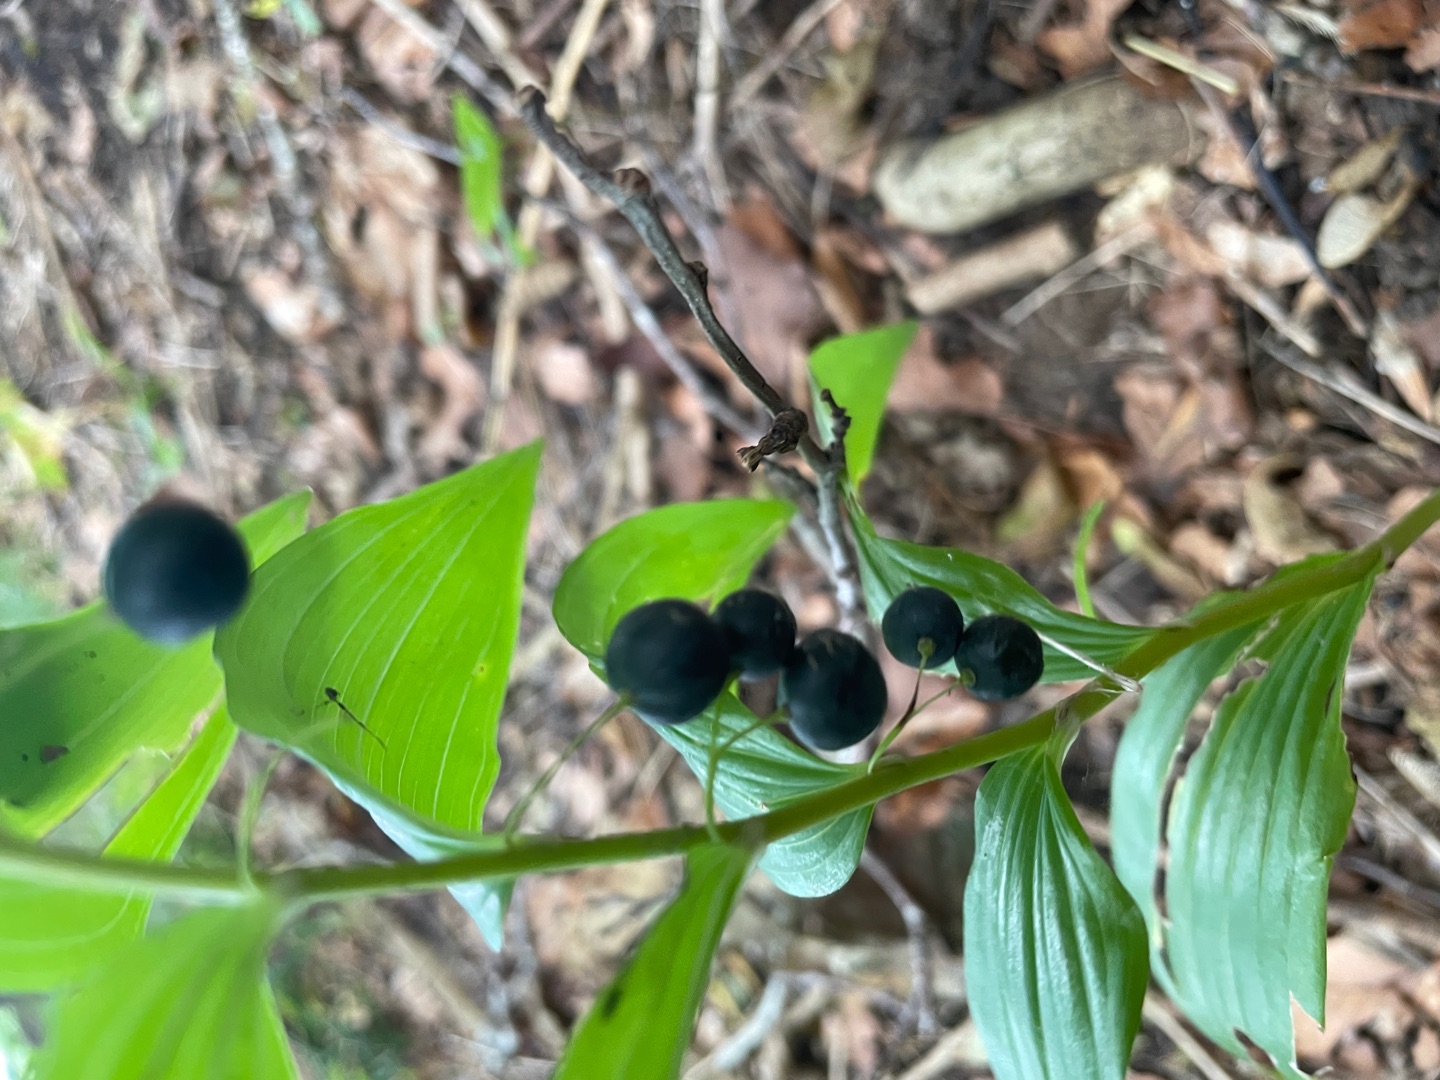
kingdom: Plantae
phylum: Tracheophyta
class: Liliopsida
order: Asparagales
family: Asparagaceae
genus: Polygonatum
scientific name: Polygonatum multiflorum
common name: Stor konval
